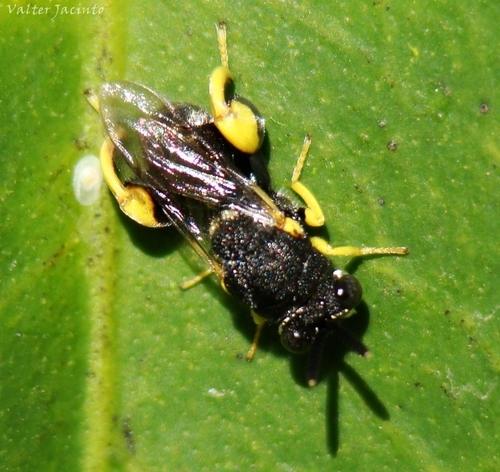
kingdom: Animalia
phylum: Arthropoda
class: Insecta
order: Hymenoptera
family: Chalcididae
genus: Brachymeria
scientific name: Brachymeria femorata
